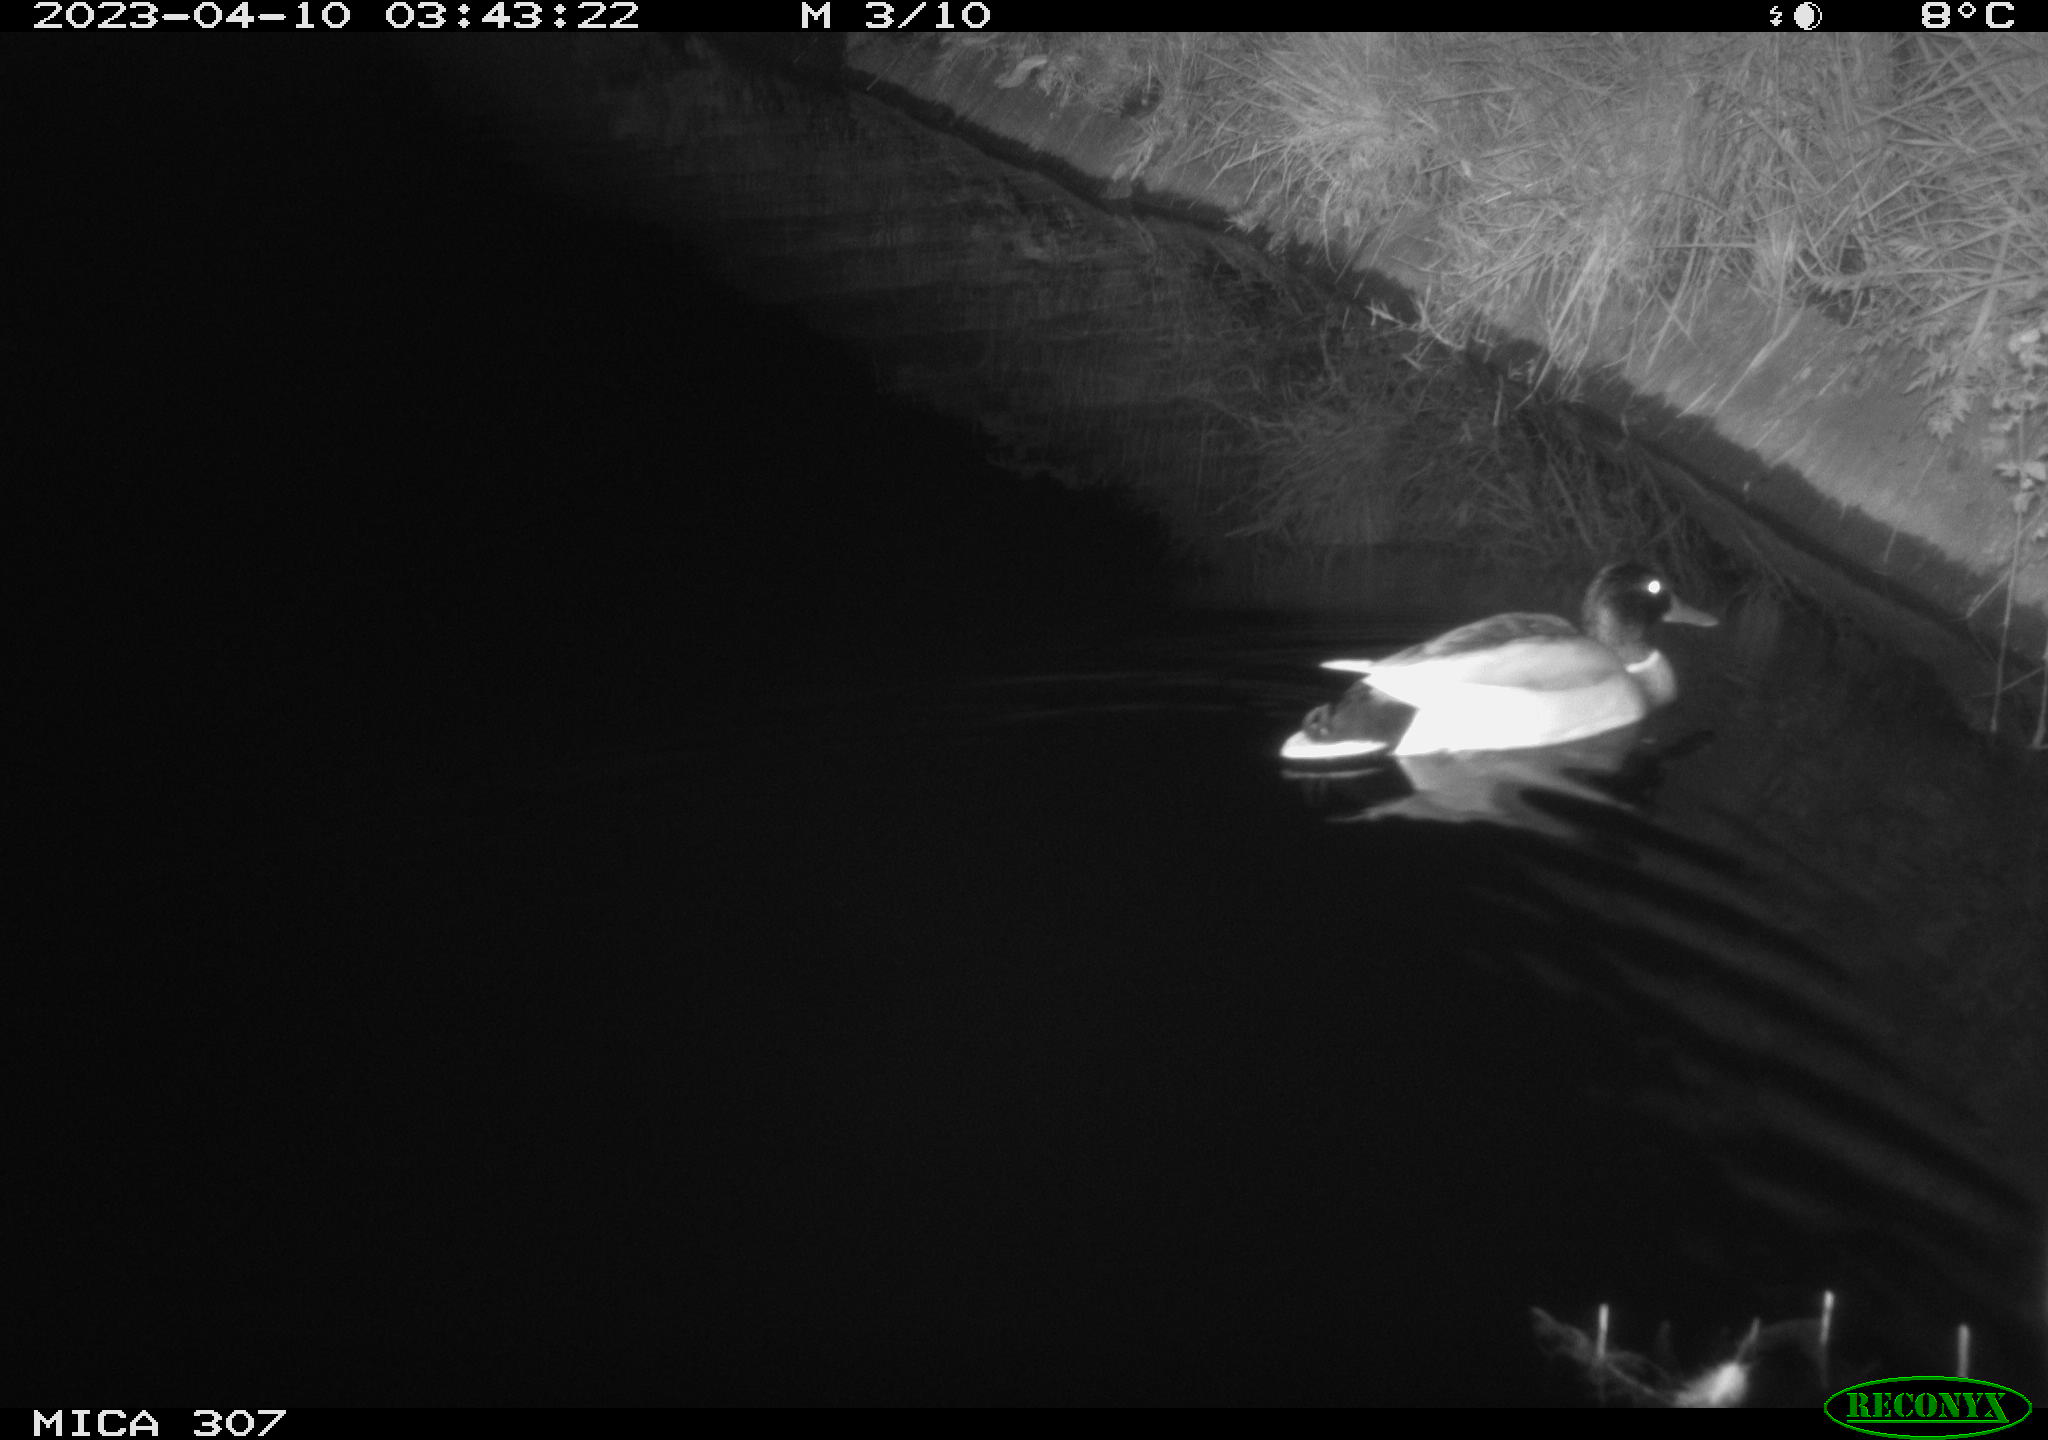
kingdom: Animalia
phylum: Chordata
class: Mammalia
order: Rodentia
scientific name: Rodentia
